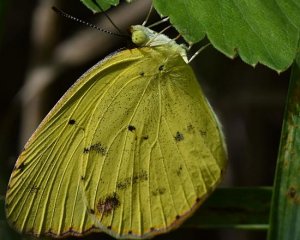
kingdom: Animalia
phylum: Arthropoda
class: Insecta
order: Lepidoptera
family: Pieridae
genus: Pyrisitia
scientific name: Pyrisitia lisa
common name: Little Yellow
